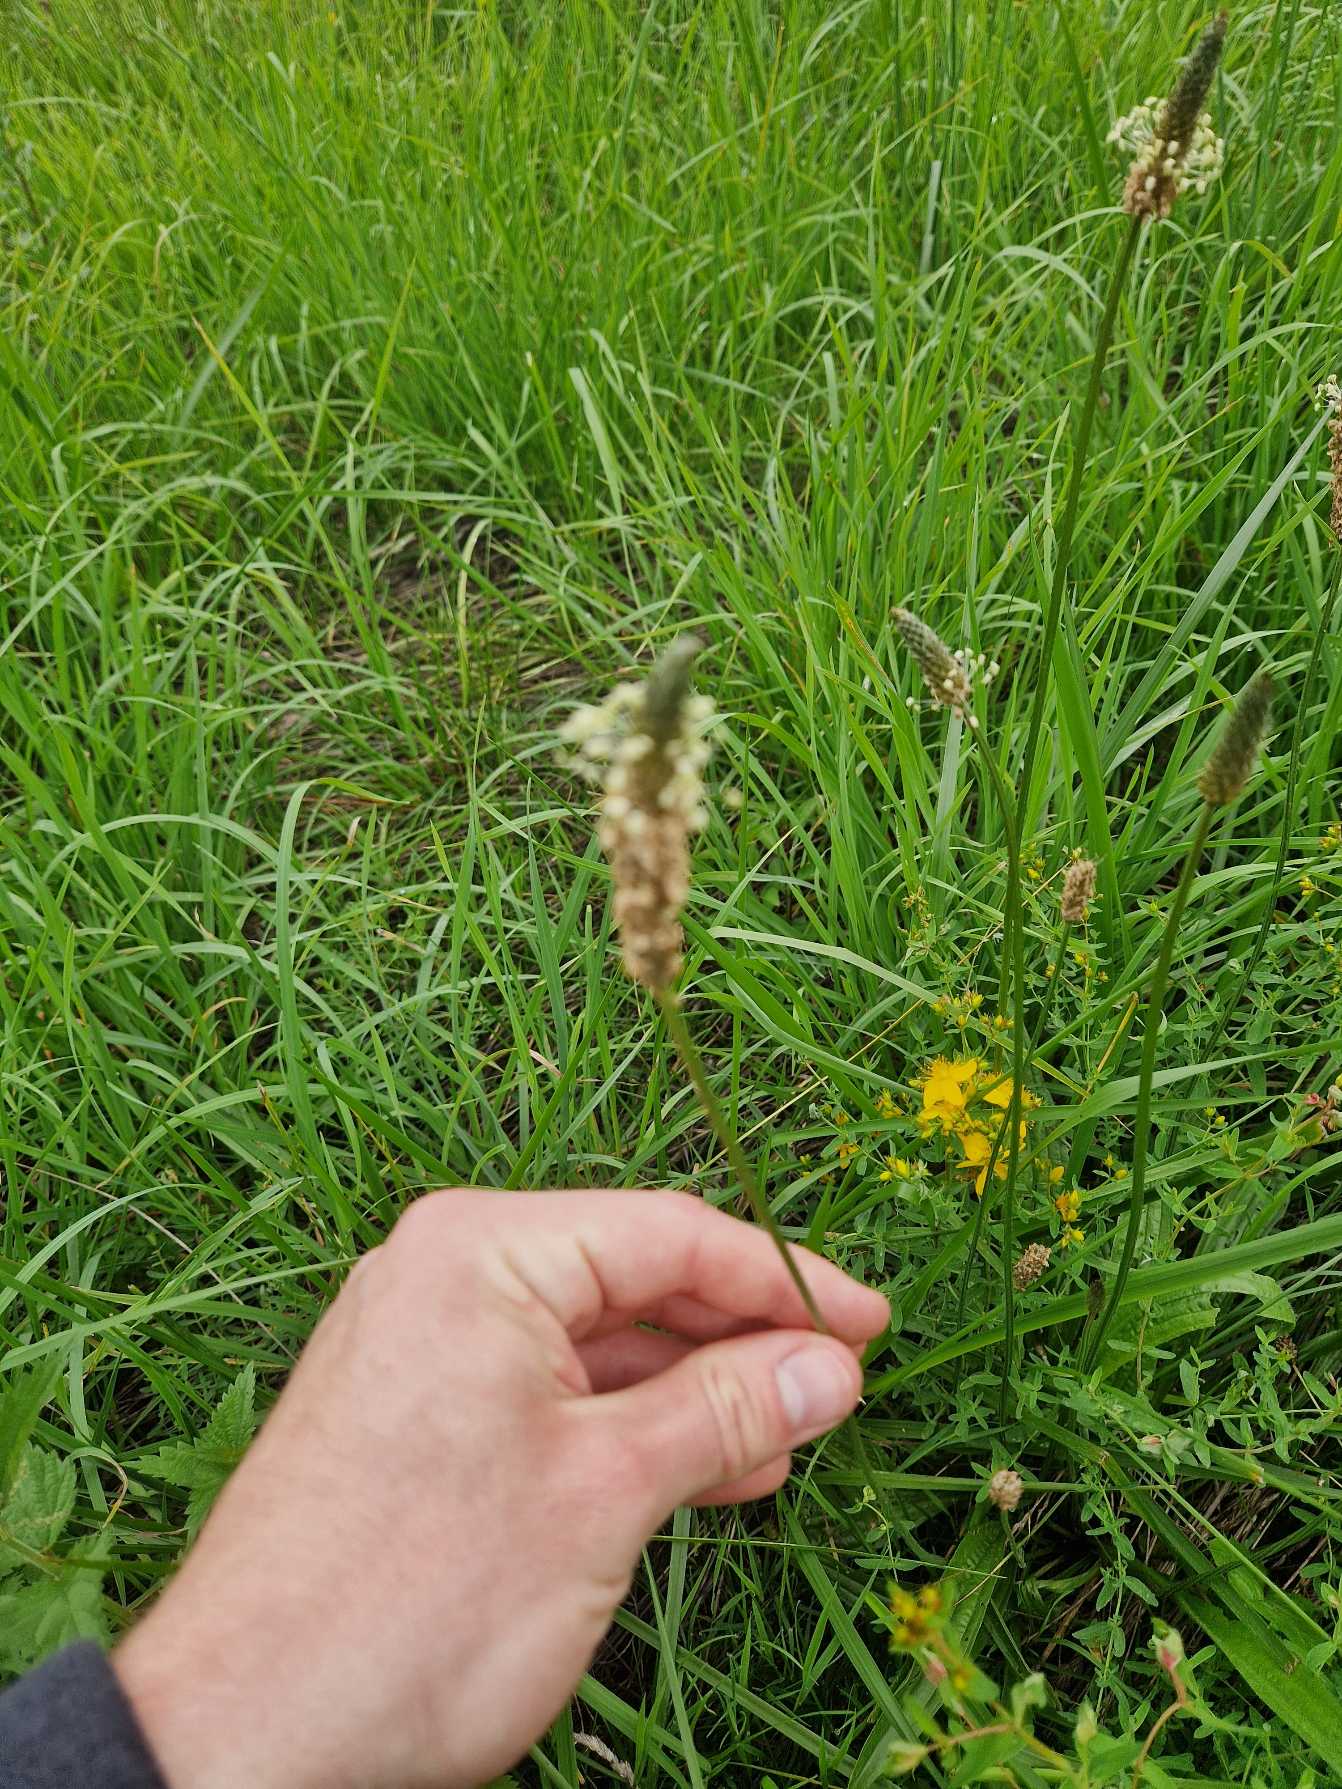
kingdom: Plantae
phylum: Tracheophyta
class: Magnoliopsida
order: Lamiales
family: Plantaginaceae
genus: Plantago
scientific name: Plantago lanceolata
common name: Lancet-vejbred
